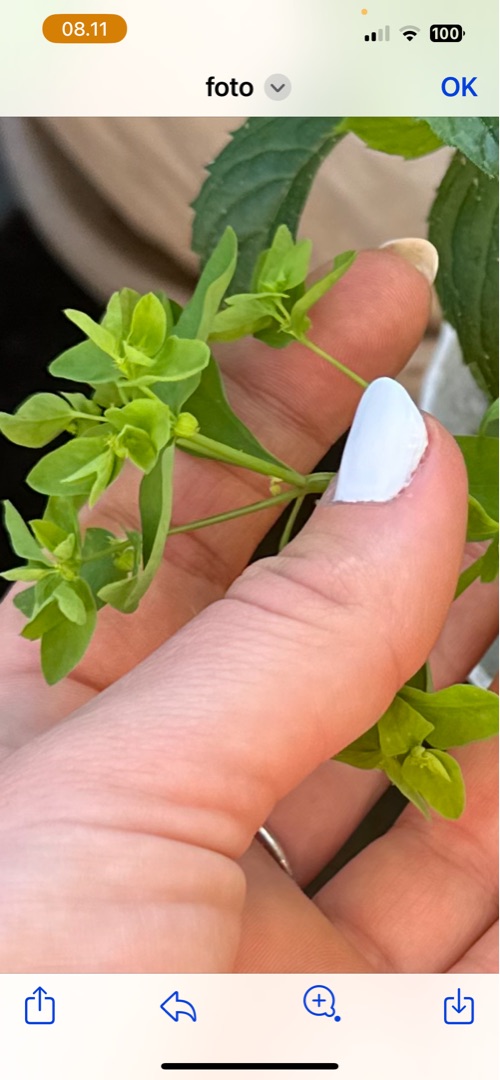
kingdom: Plantae
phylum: Tracheophyta
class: Magnoliopsida
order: Malpighiales
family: Euphorbiaceae
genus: Euphorbia
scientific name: Euphorbia peplus
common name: Gaffel-vortemælk
